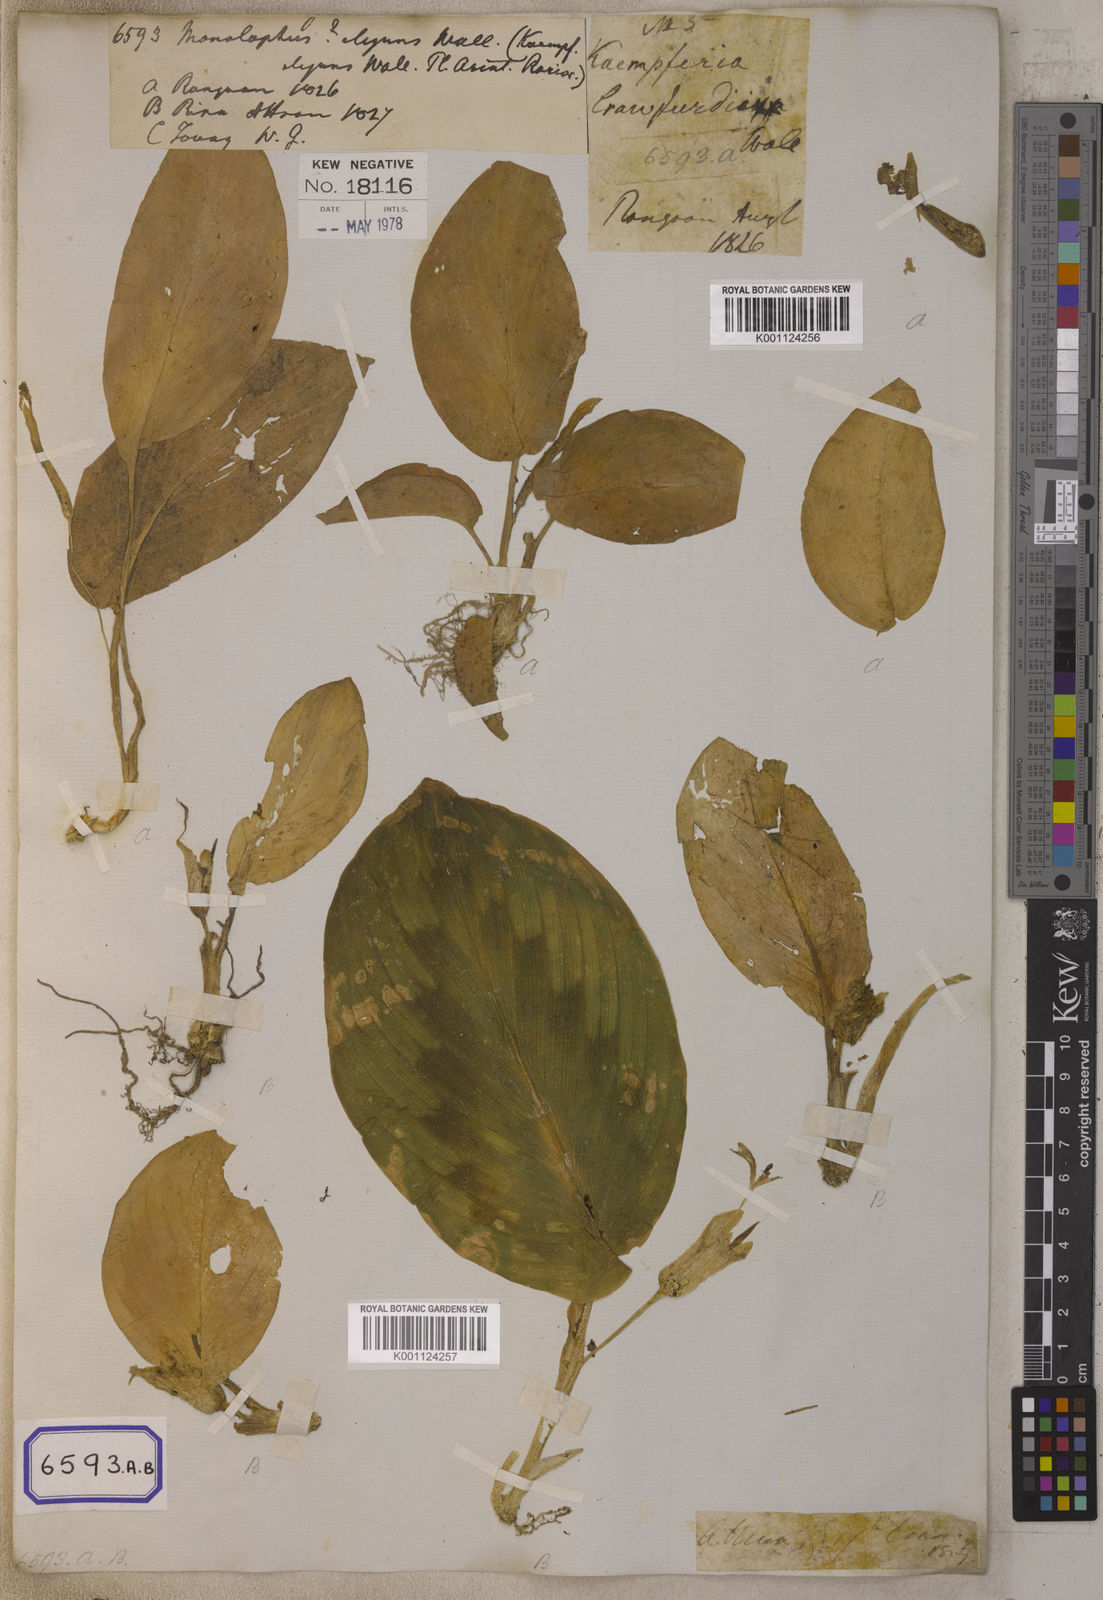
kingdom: Plantae
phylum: Tracheophyta
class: Liliopsida
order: Zingiberales
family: Zingiberaceae
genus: Kaempferia
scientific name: Kaempferia elegans
